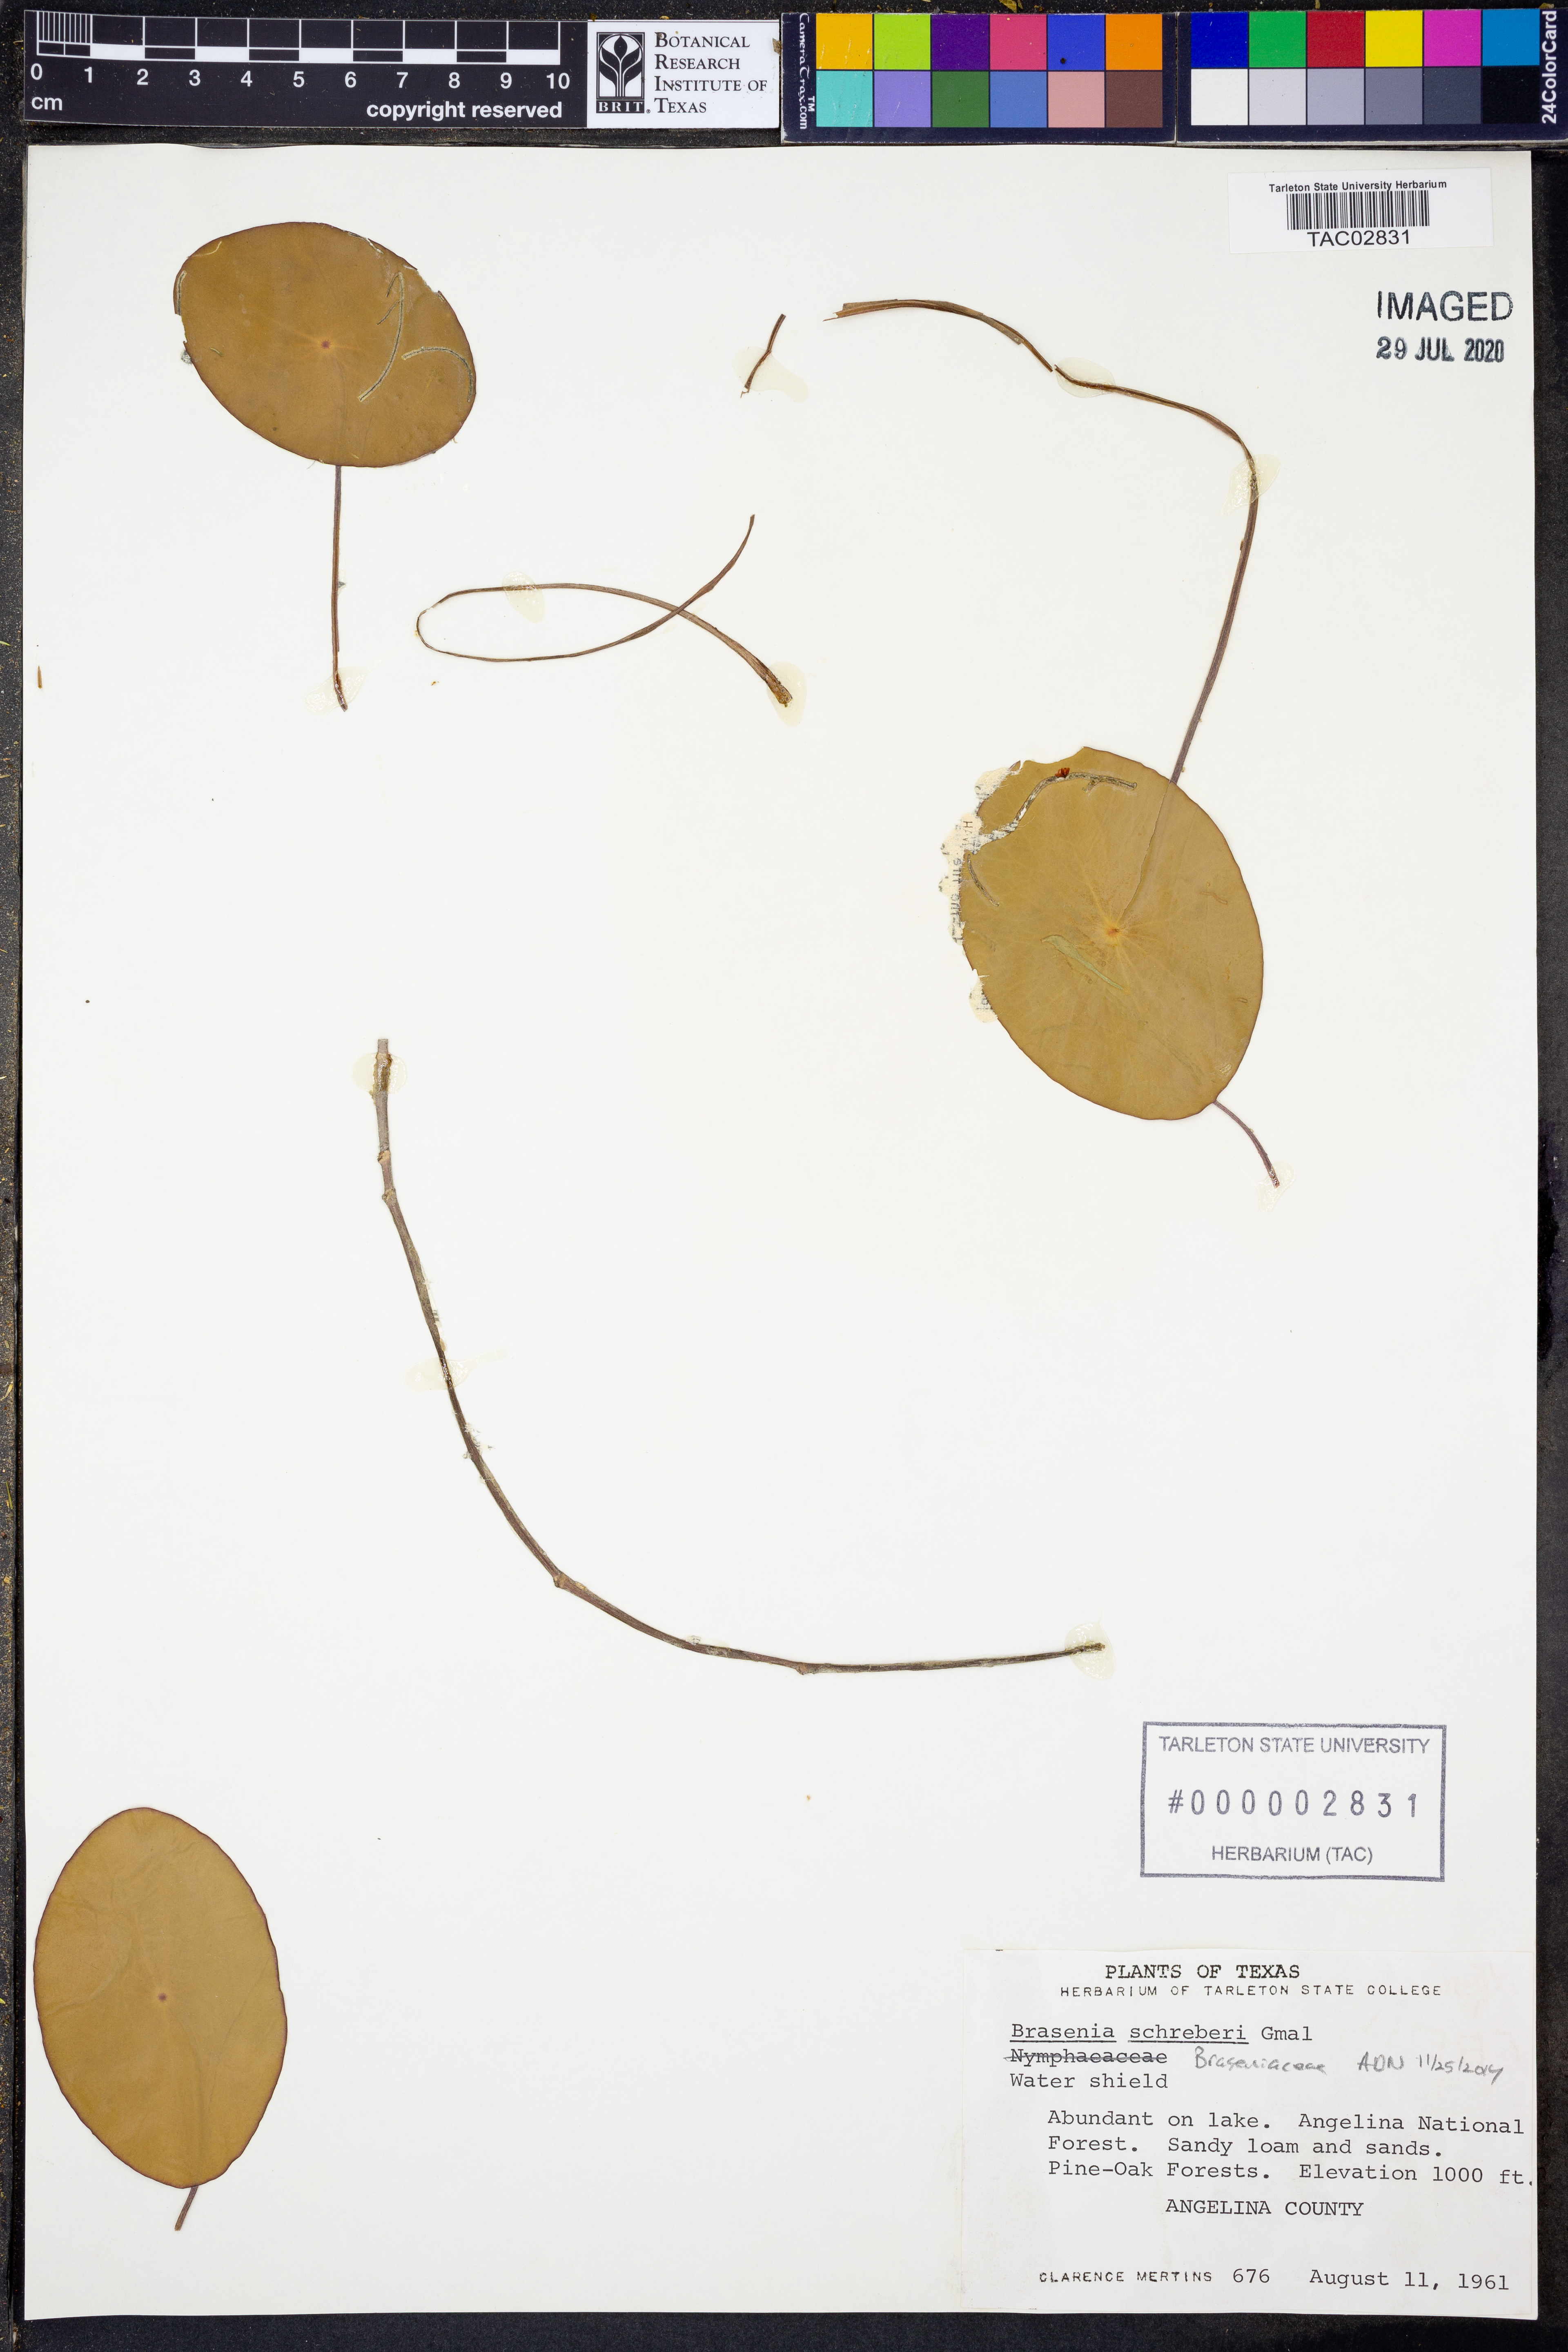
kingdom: Plantae
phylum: Tracheophyta
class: Magnoliopsida
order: Nymphaeales
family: Cabombaceae
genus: Brasenia
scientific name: Brasenia schreberi
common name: Water-shield
